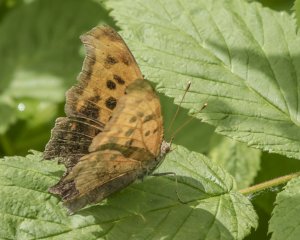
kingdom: Animalia
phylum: Arthropoda
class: Insecta
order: Lepidoptera
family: Nymphalidae
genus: Polygonia
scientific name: Polygonia interrogationis
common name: Question Mark
